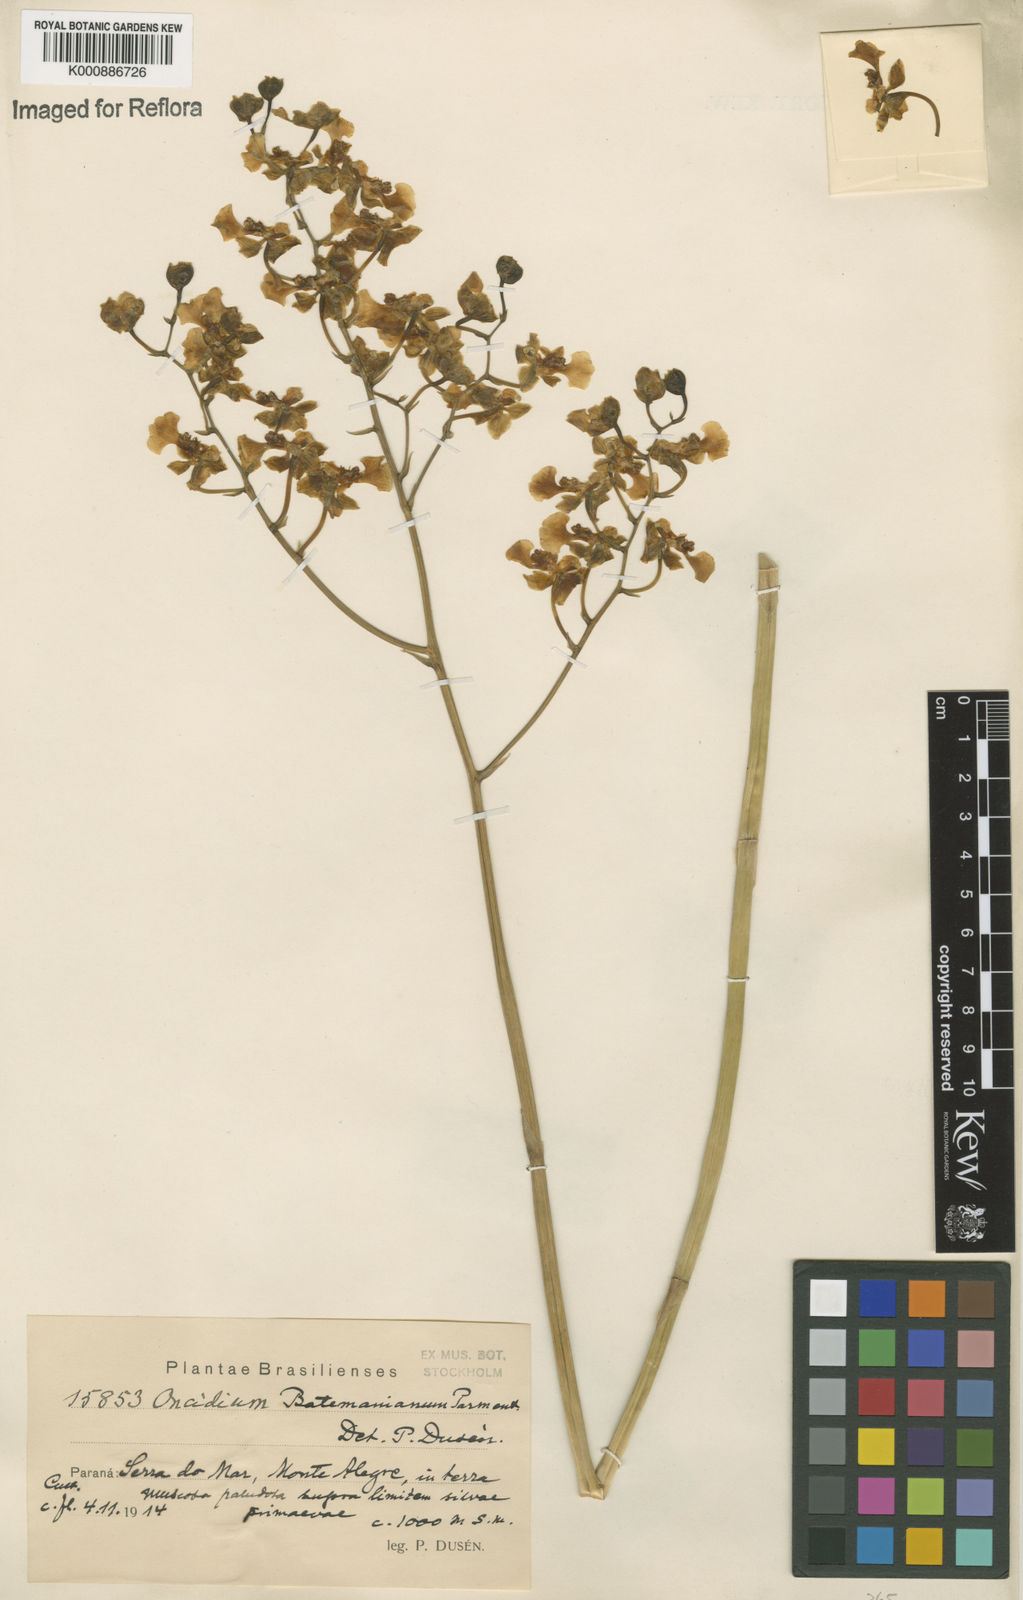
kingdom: Plantae
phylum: Tracheophyta
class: Liliopsida
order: Asparagales
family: Orchidaceae
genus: Gomesa
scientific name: Gomesa dasytyle
